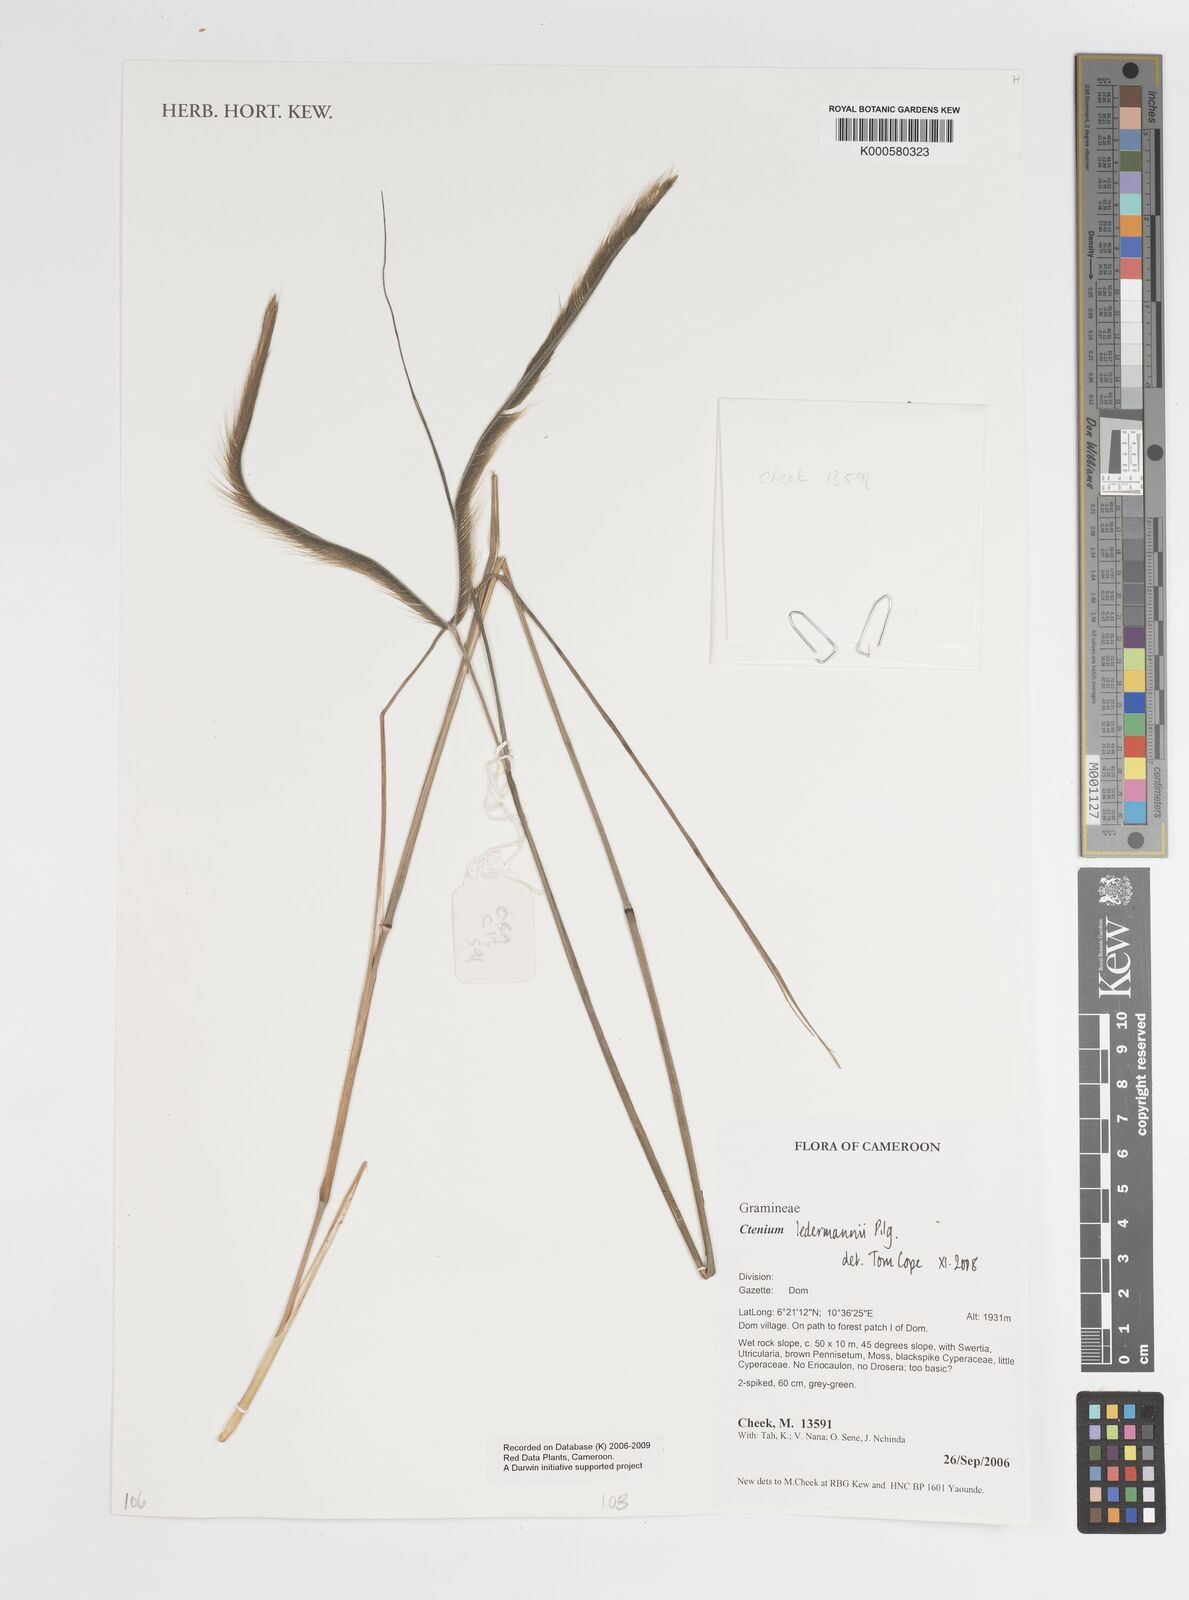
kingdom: Plantae
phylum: Tracheophyta
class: Liliopsida
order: Poales
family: Poaceae
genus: Ctenium
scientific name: Ctenium ledermannii
